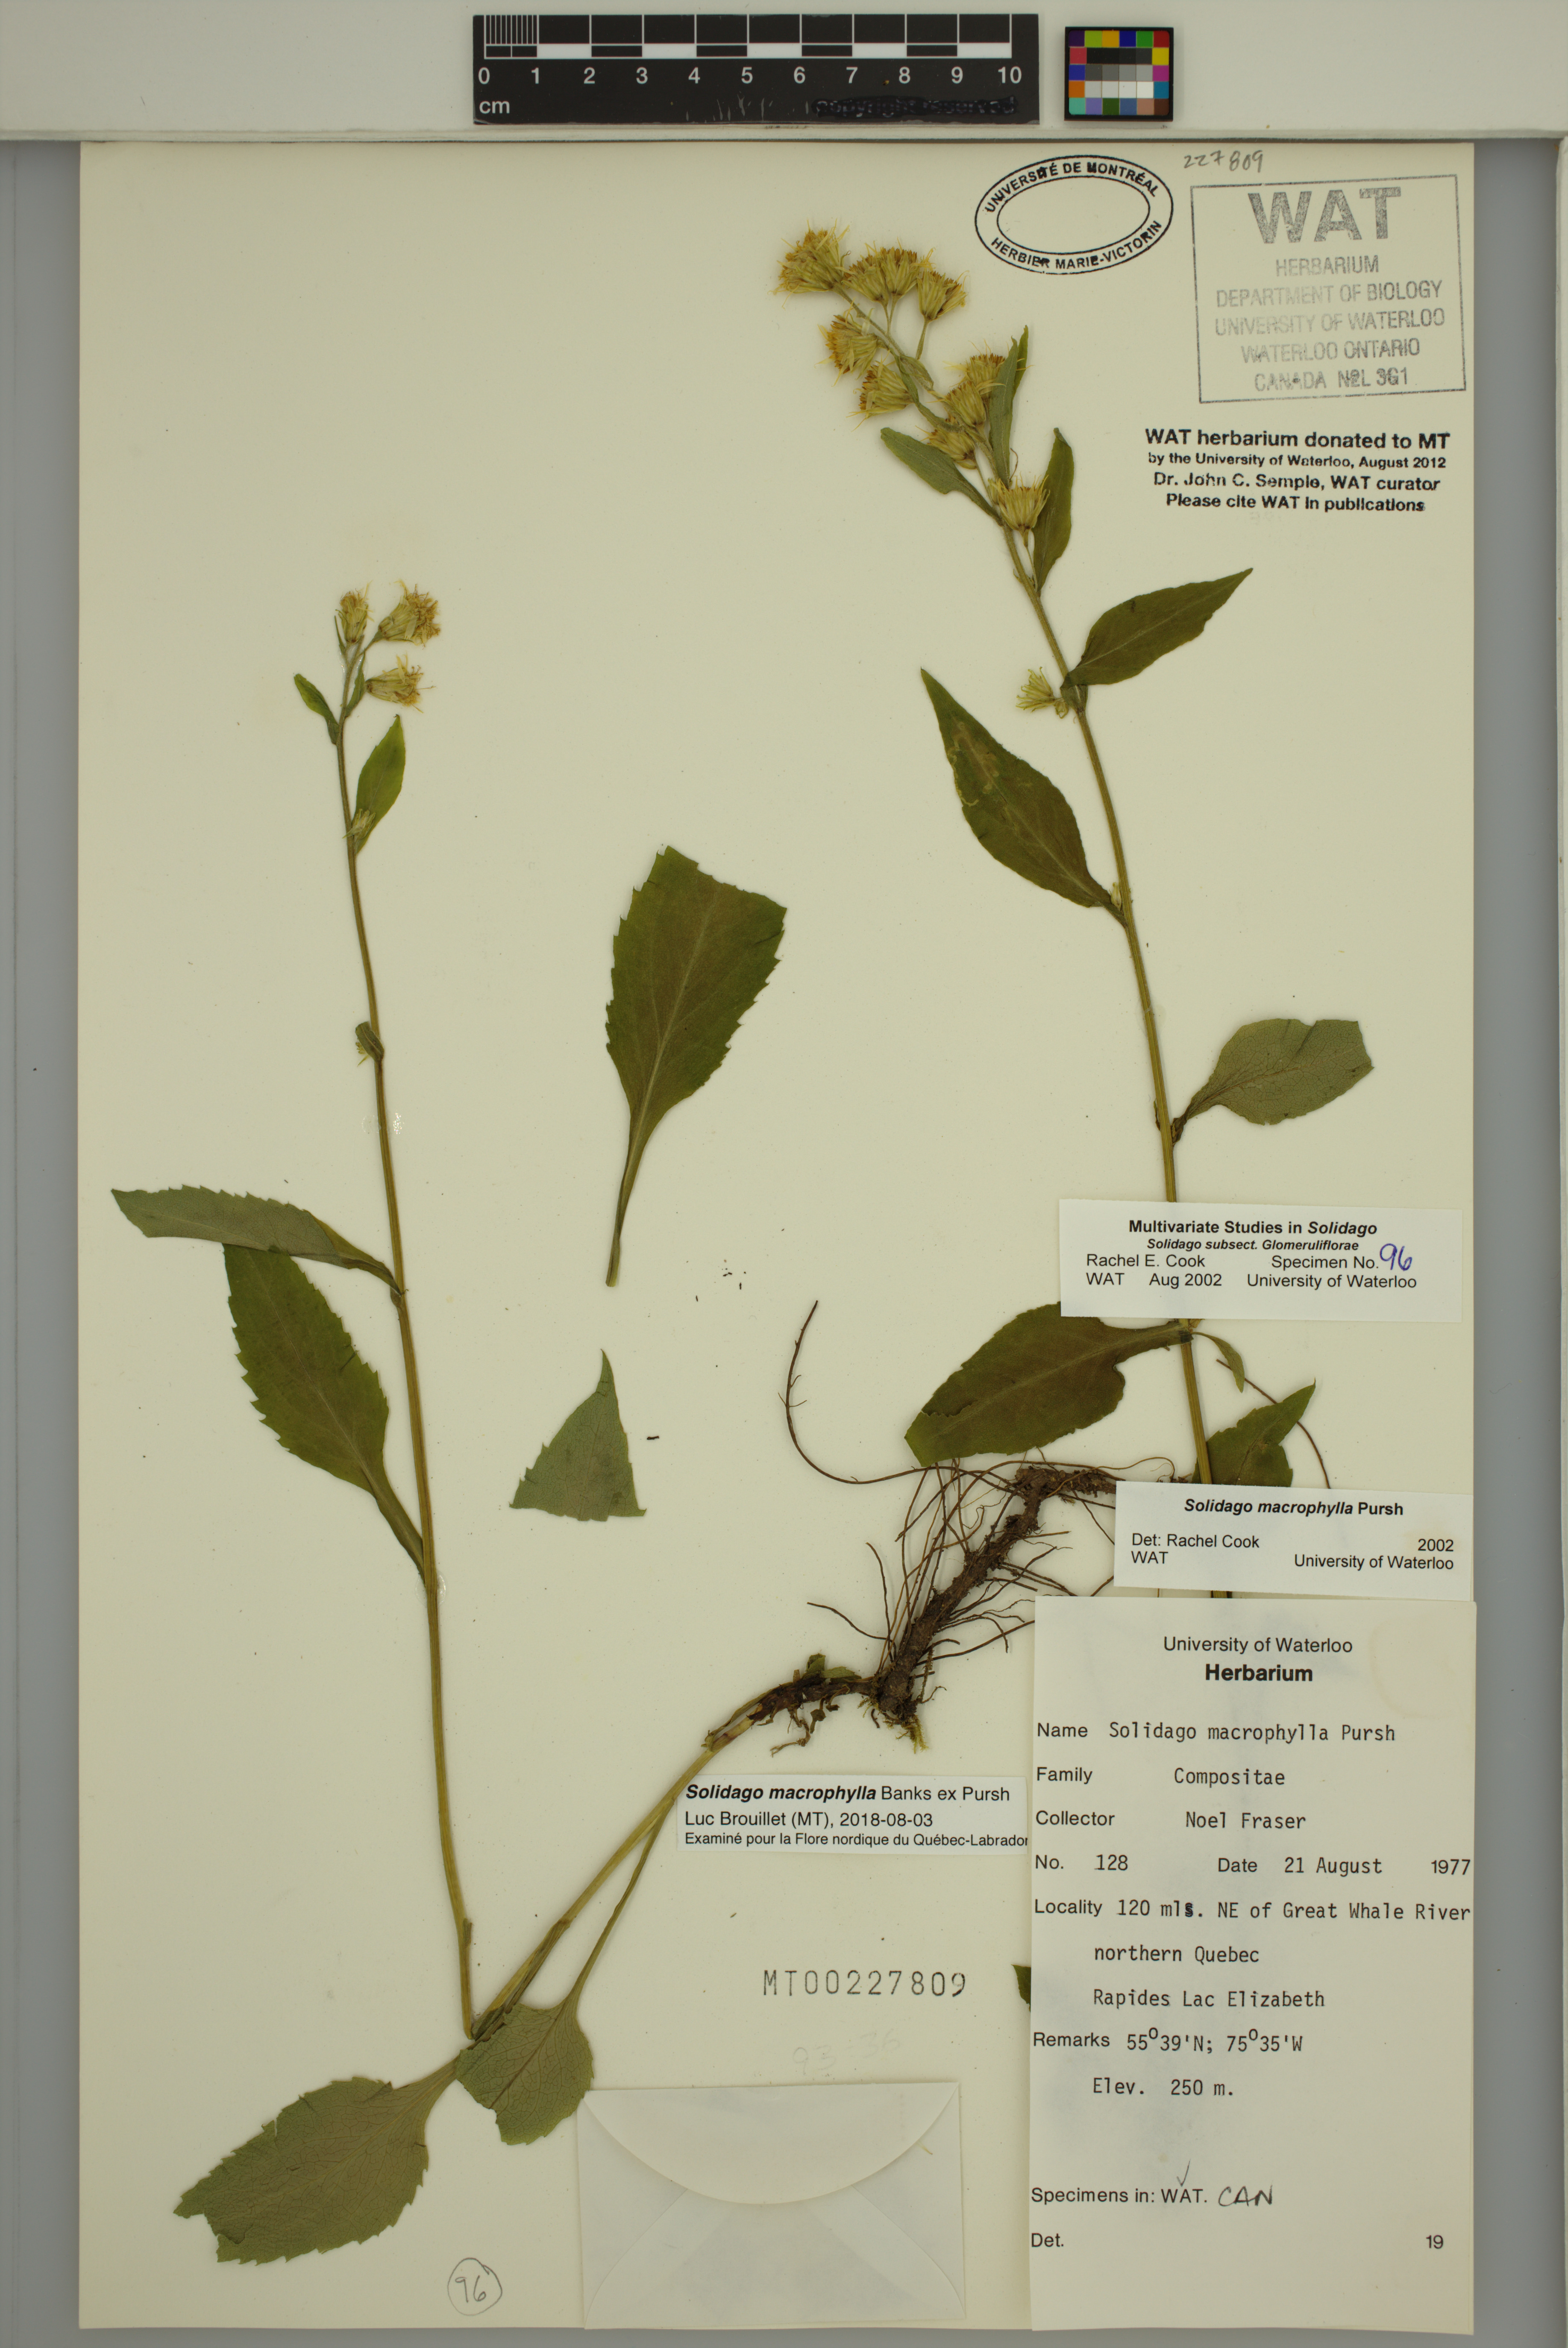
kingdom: Plantae
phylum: Tracheophyta
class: Magnoliopsida
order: Asterales
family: Asteraceae
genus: Solidago
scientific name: Solidago macrophylla
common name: Large-leaved goldenrod
